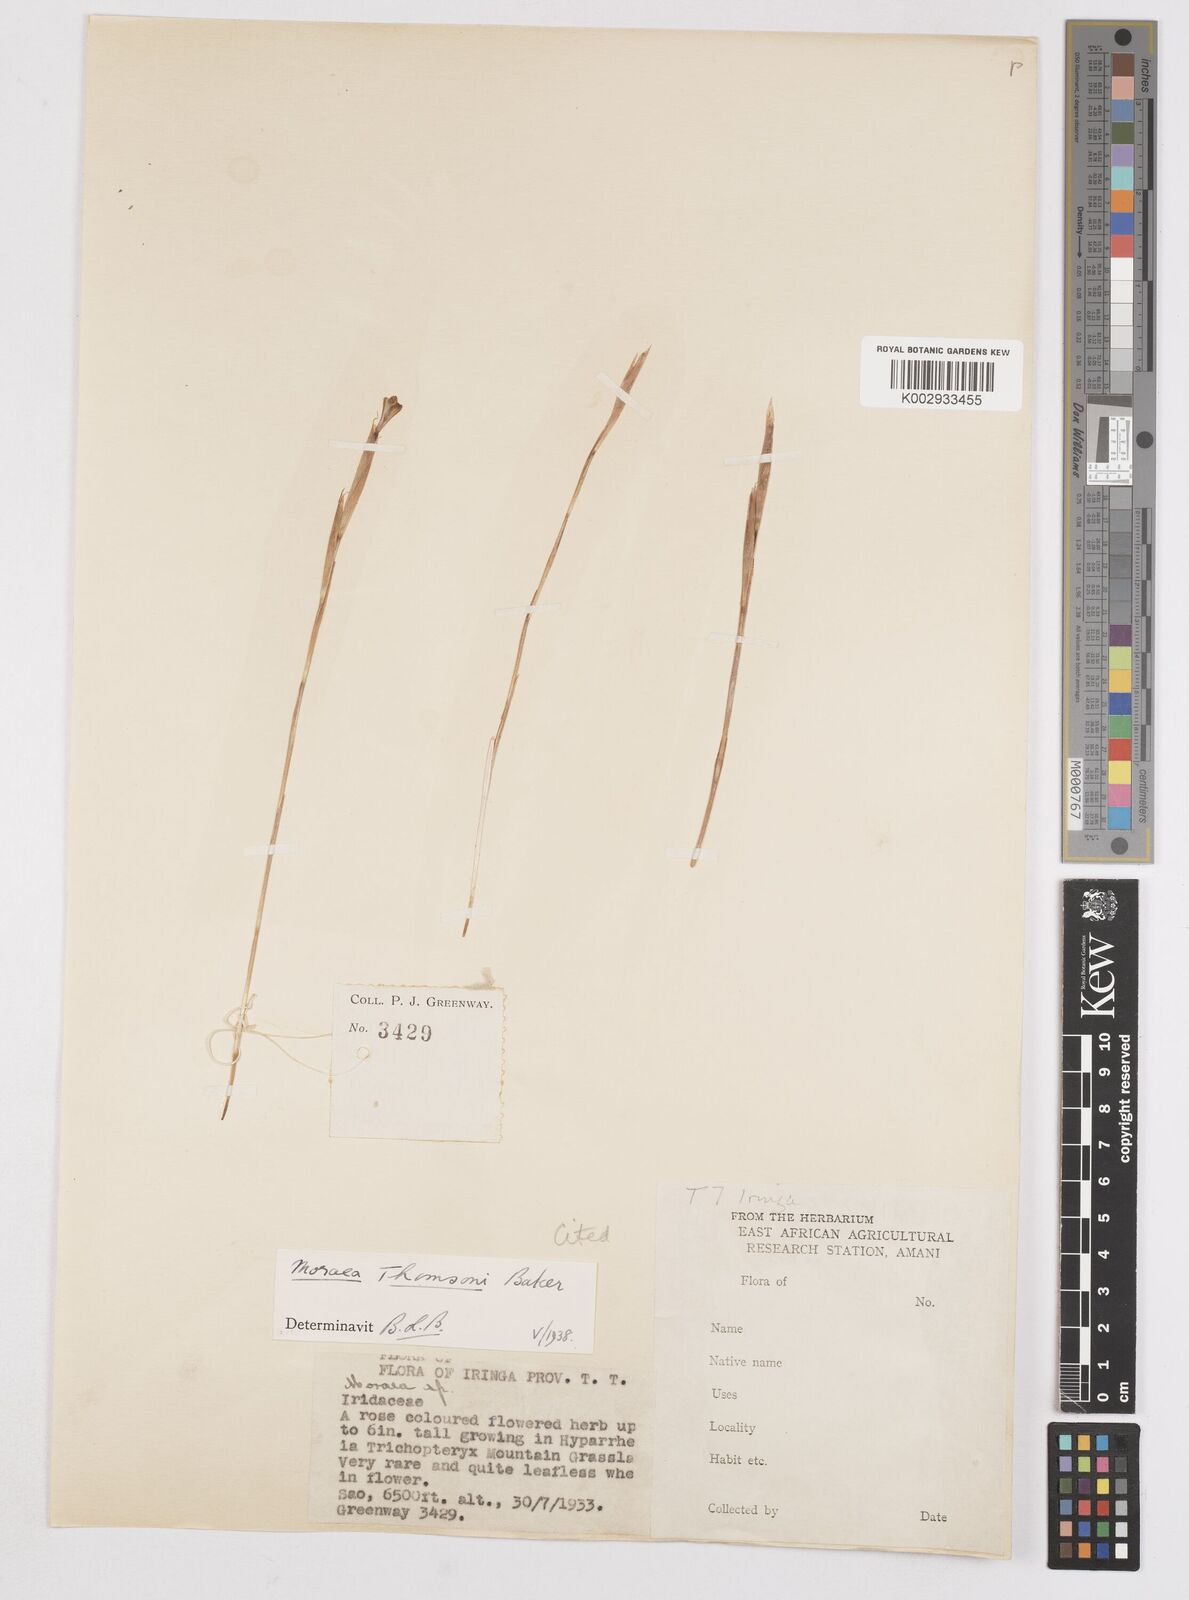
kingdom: Plantae
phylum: Tracheophyta
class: Liliopsida
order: Asparagales
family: Iridaceae
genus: Moraea
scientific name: Moraea stricta
